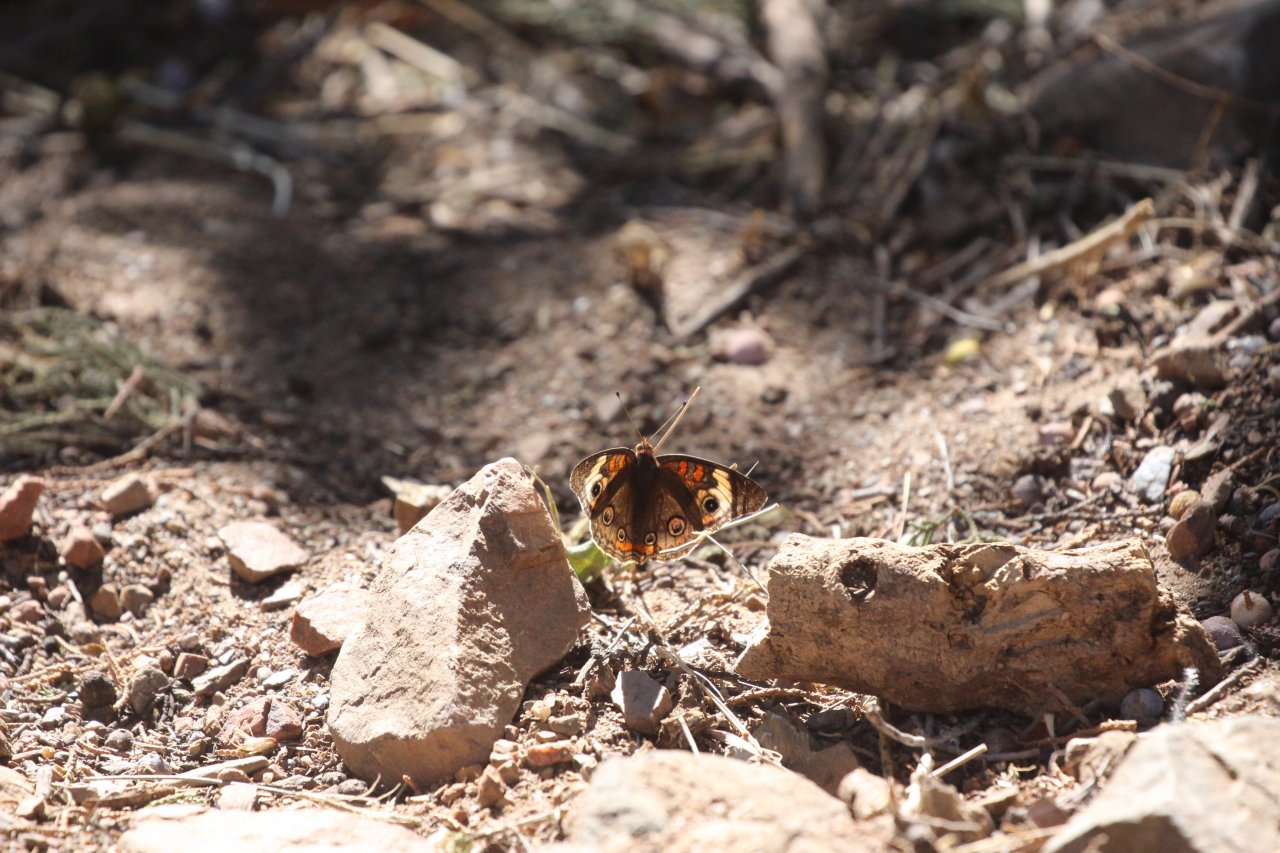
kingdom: Animalia
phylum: Arthropoda
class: Insecta
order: Lepidoptera
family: Nymphalidae
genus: Junonia
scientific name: Junonia coenia
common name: Common Buckeye
